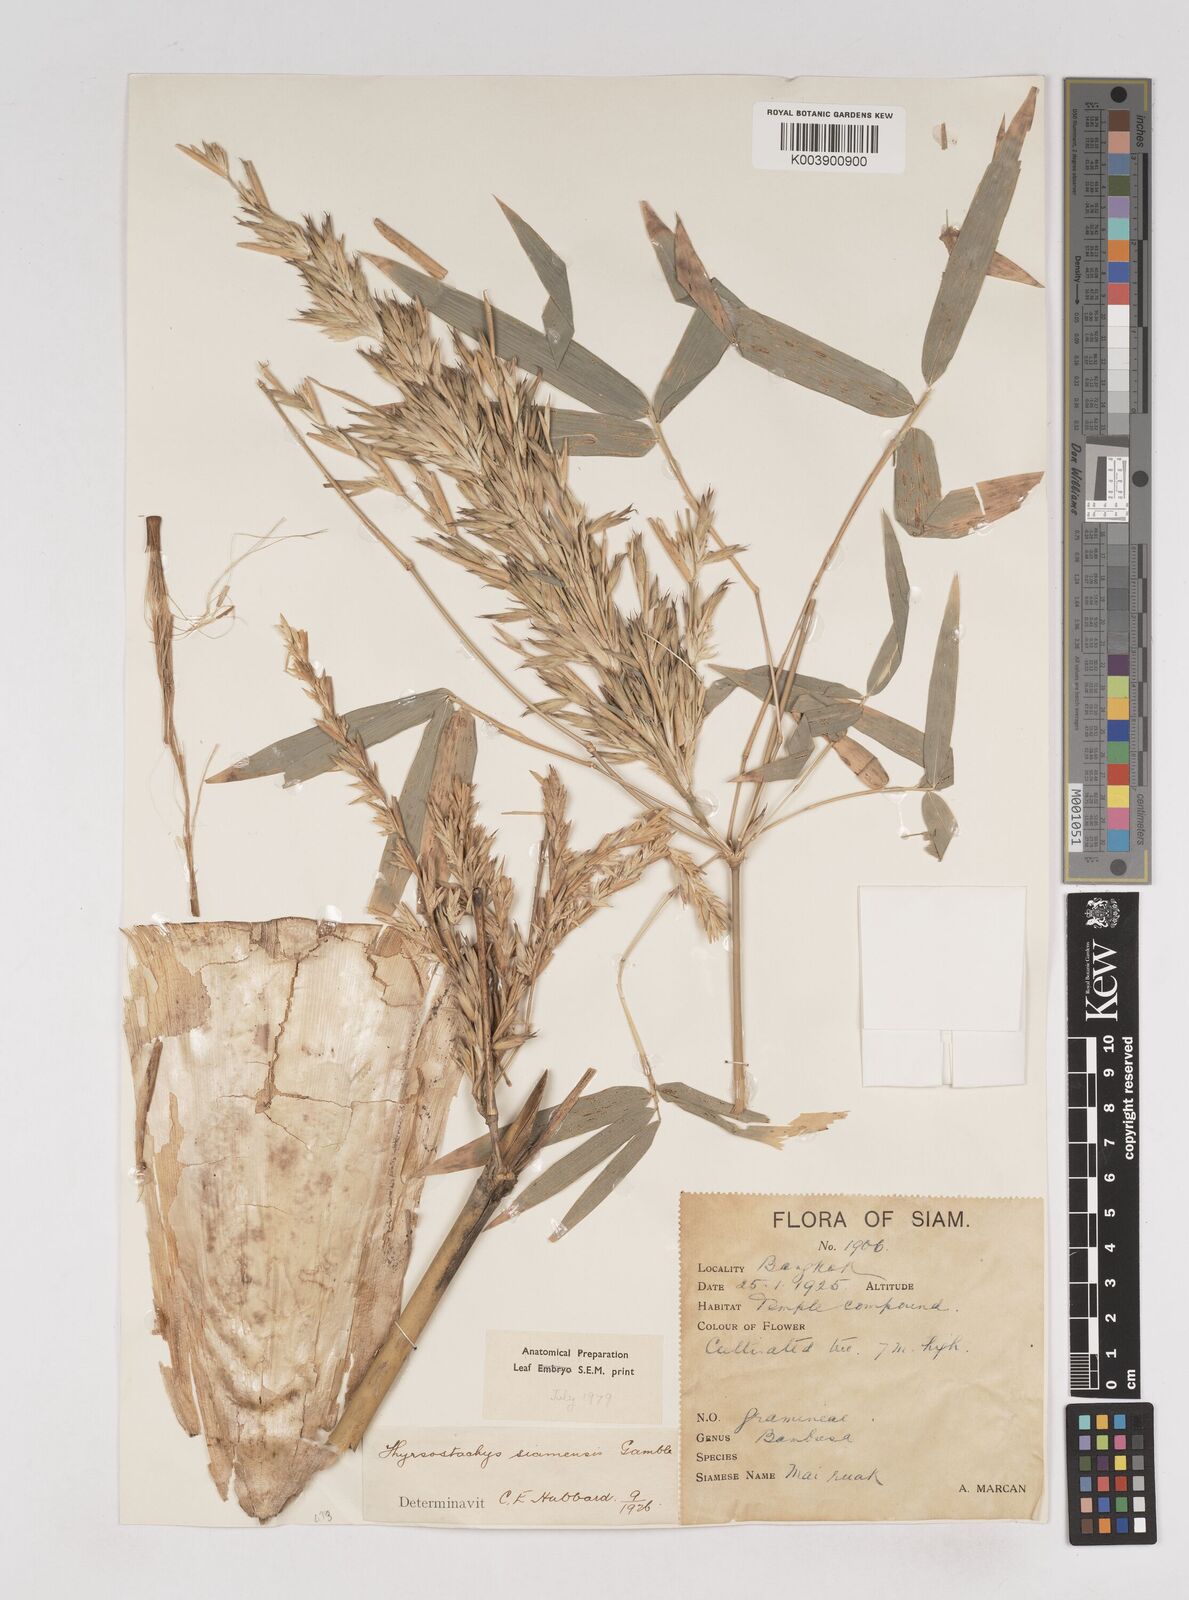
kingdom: Plantae
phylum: Tracheophyta
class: Liliopsida
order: Poales
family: Poaceae
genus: Thyrsostachys
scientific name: Thyrsostachys siamensis
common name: Thailand bamboo
